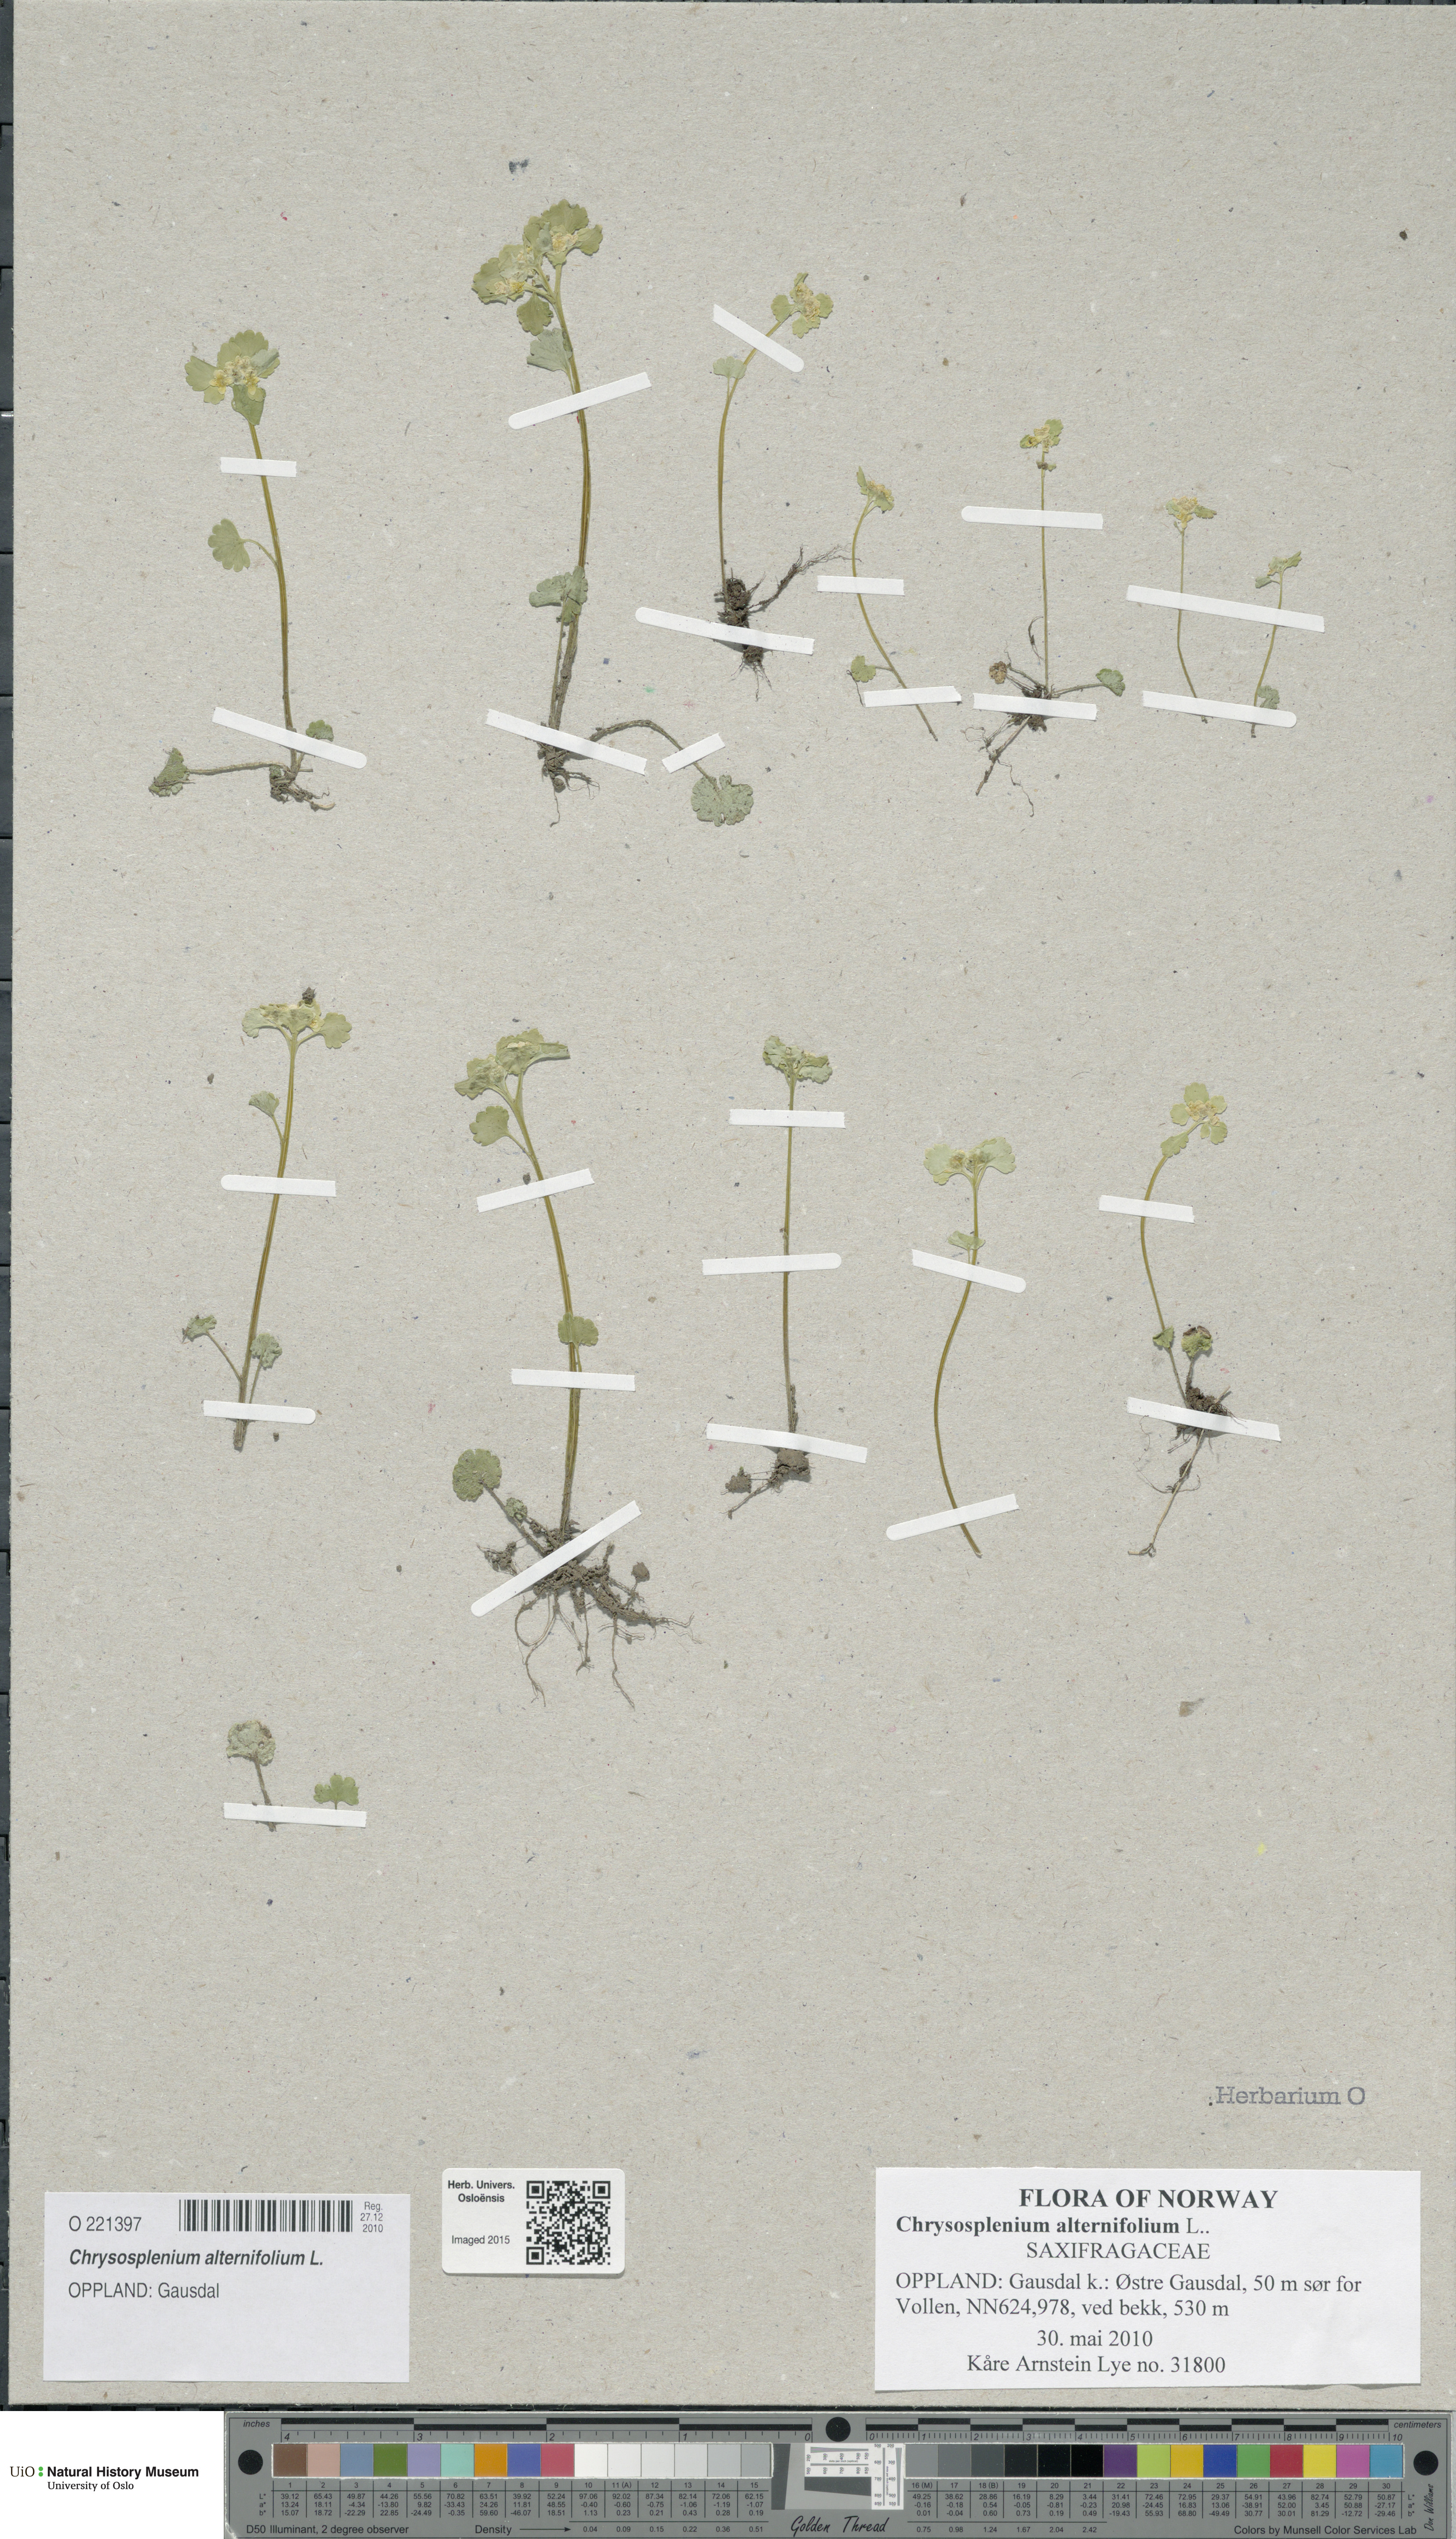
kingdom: Plantae
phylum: Tracheophyta
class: Magnoliopsida
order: Saxifragales
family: Saxifragaceae
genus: Chrysosplenium
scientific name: Chrysosplenium alternifolium
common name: Alternate-leaved golden-saxifrage
